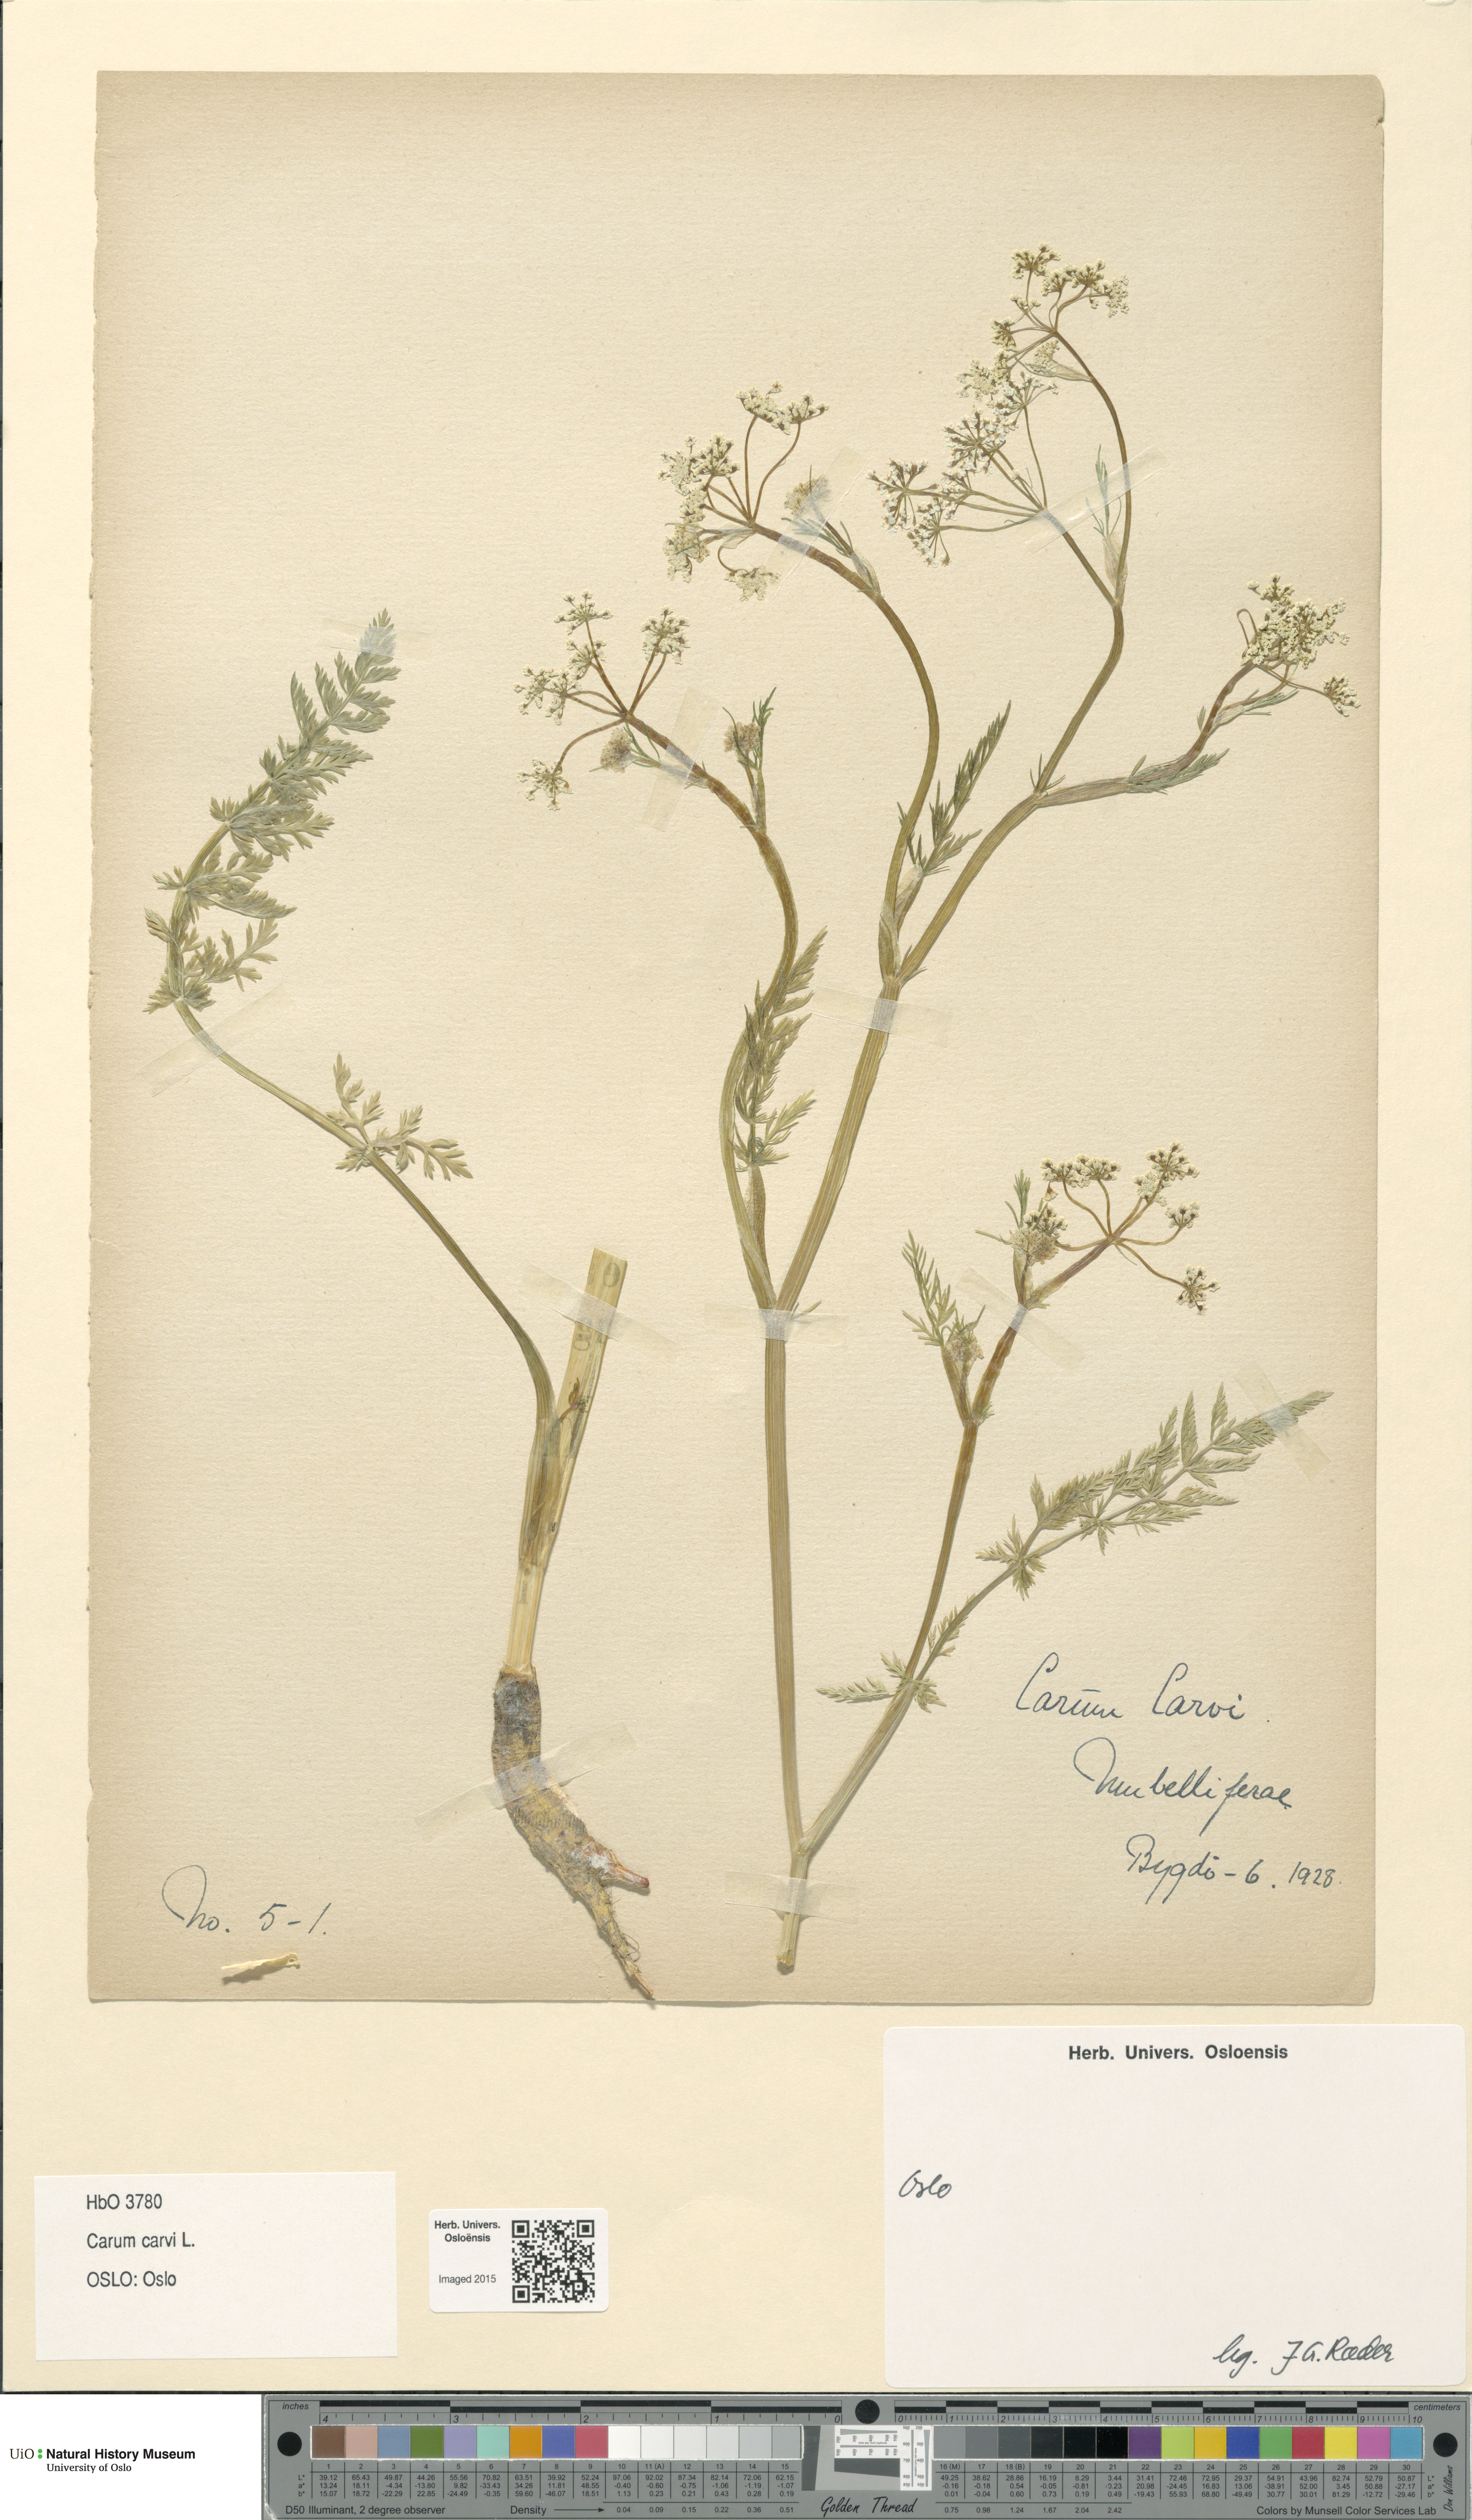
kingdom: Plantae
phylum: Tracheophyta
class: Magnoliopsida
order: Apiales
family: Apiaceae
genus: Carum
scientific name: Carum carvi
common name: Caraway
